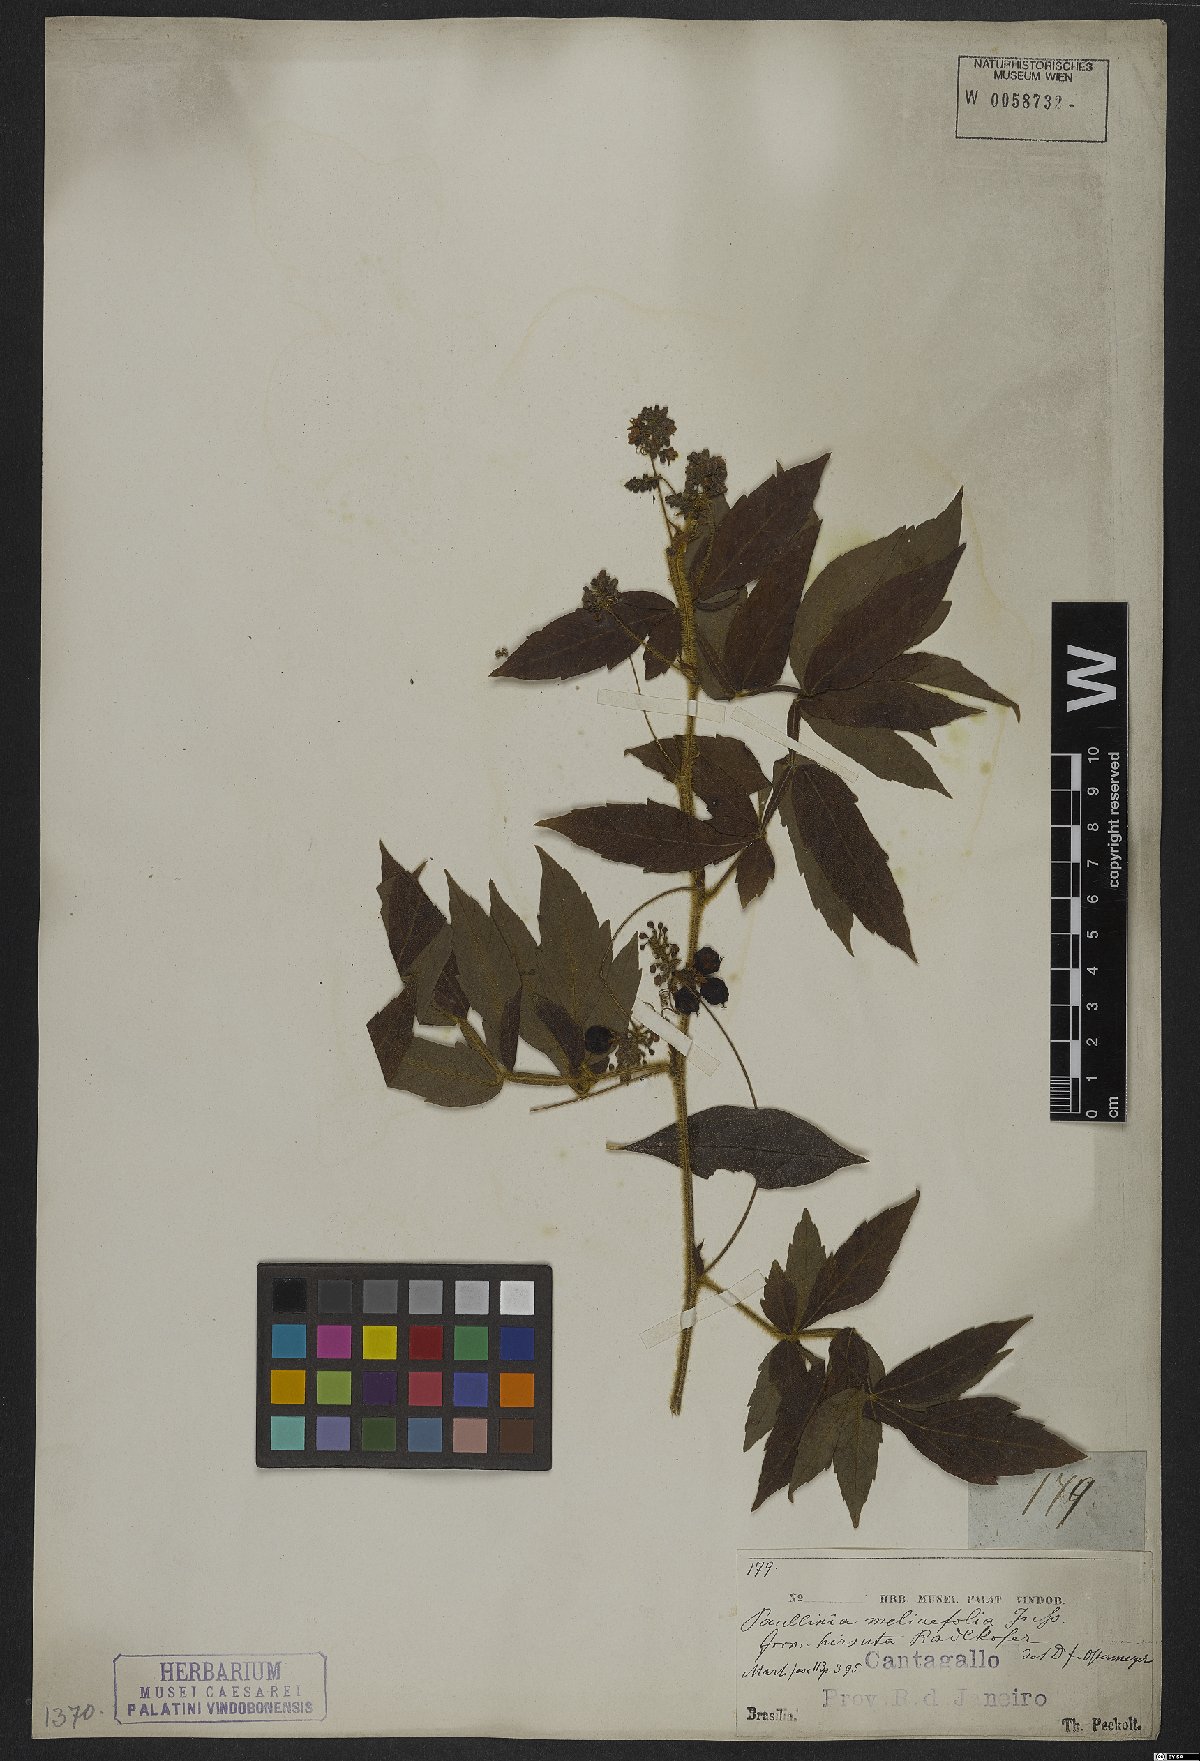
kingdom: Plantae
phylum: Tracheophyta
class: Magnoliopsida
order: Sapindales
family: Sapindaceae
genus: Paullinia
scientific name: Paullinia meliifolia
